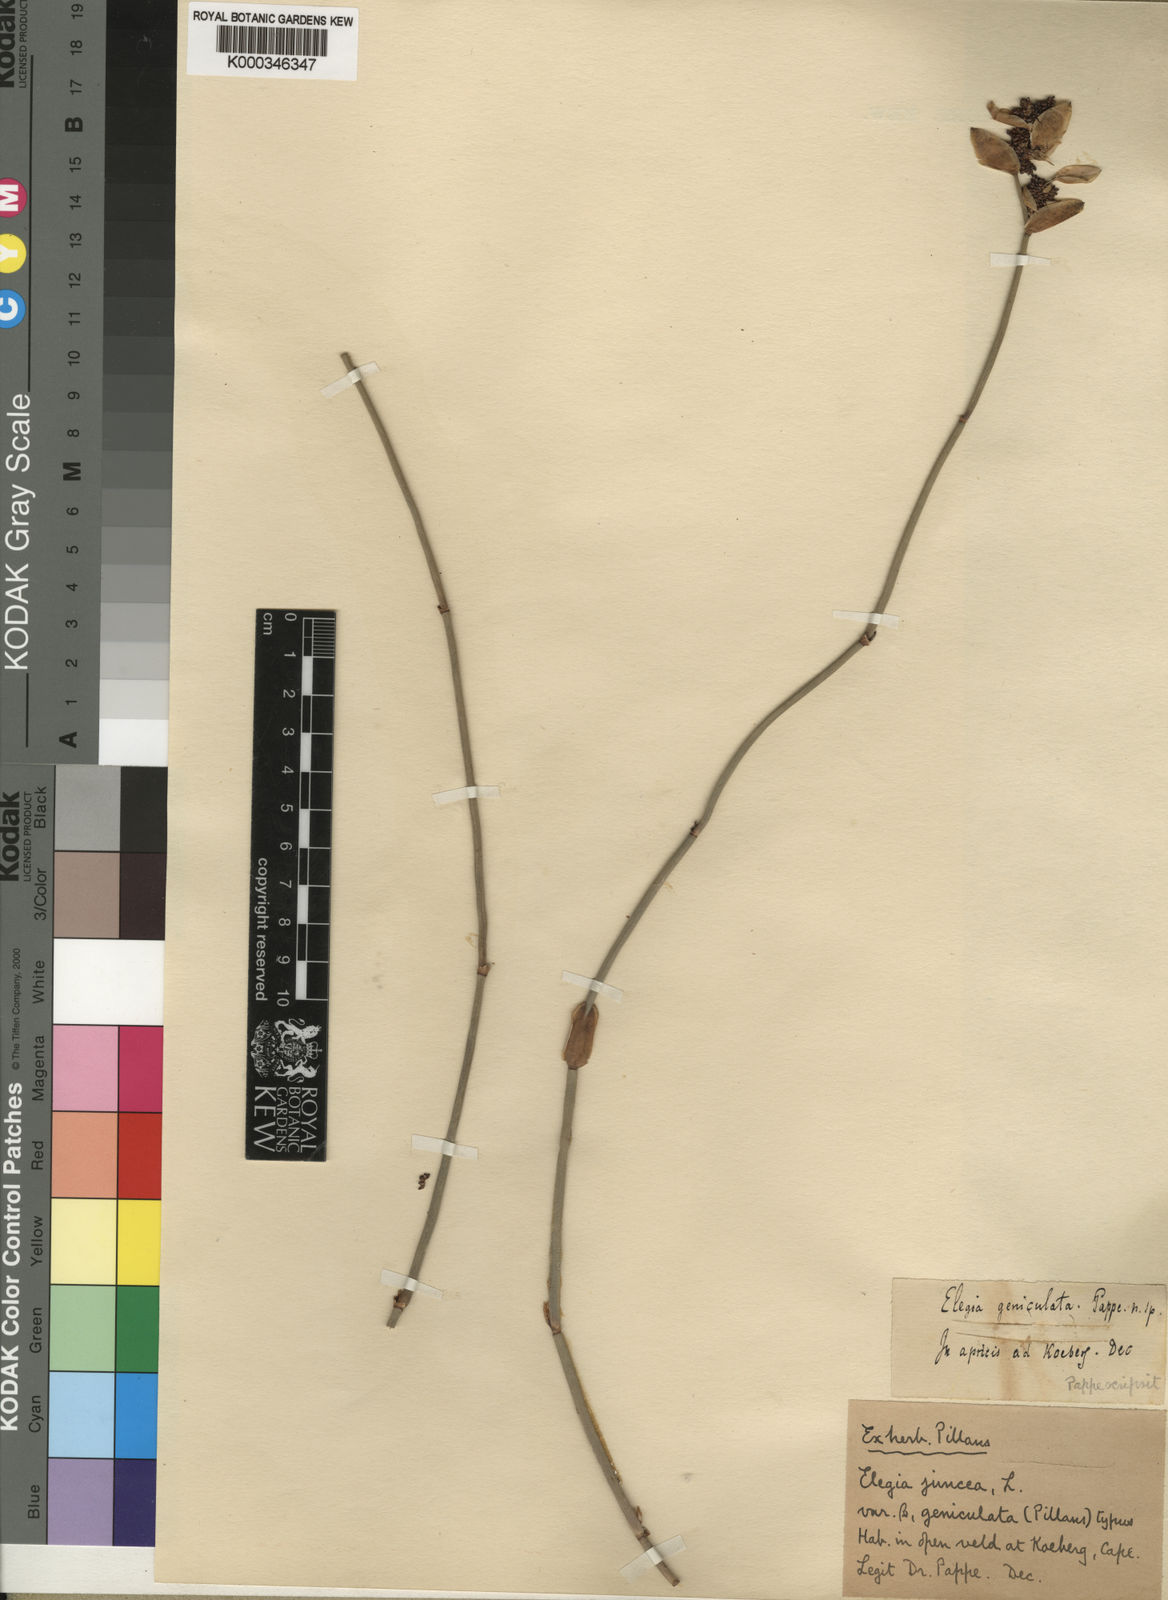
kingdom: Plantae
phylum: Tracheophyta
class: Liliopsida
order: Poales
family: Restionaceae
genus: Elegia
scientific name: Elegia juncea
